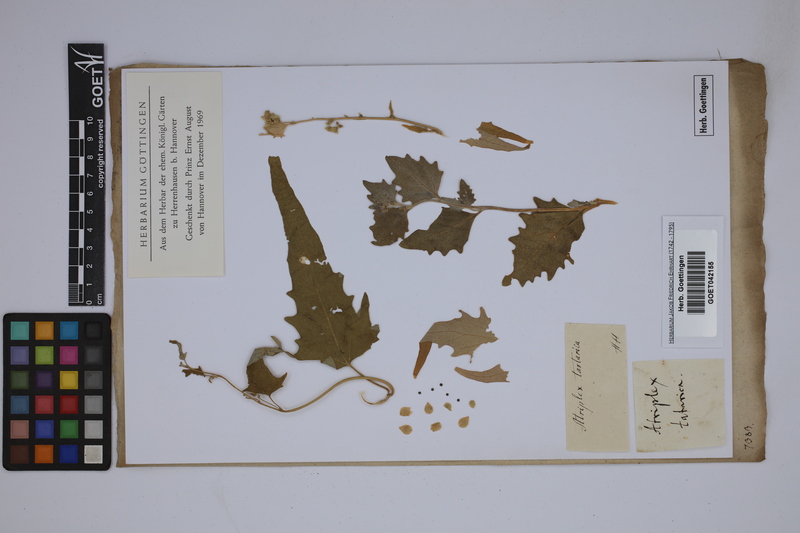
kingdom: Plantae
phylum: Tracheophyta
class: Magnoliopsida
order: Caryophyllales
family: Amaranthaceae
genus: Atriplex
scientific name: Atriplex tartarica
